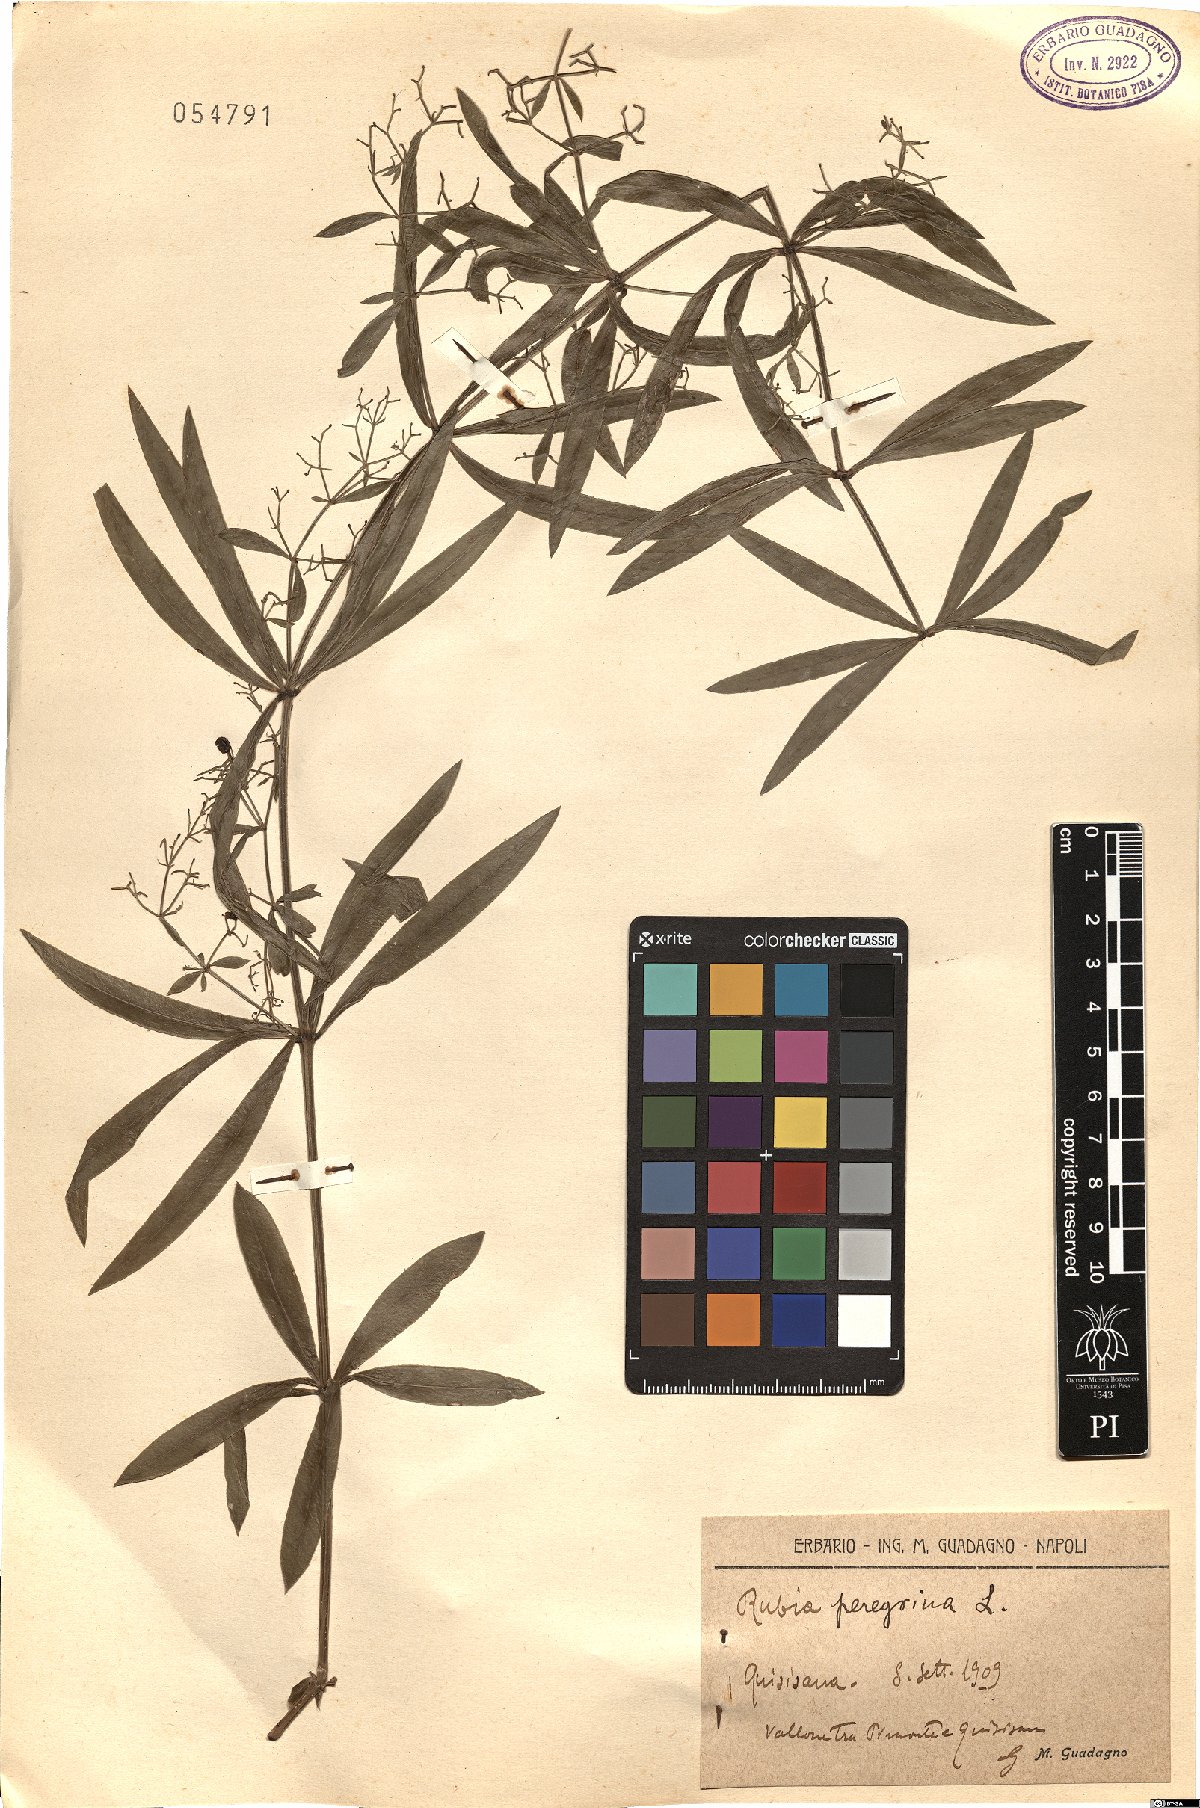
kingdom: Plantae
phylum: Tracheophyta
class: Magnoliopsida
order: Gentianales
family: Rubiaceae
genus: Rubia
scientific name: Rubia peregrina
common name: Wild madder
